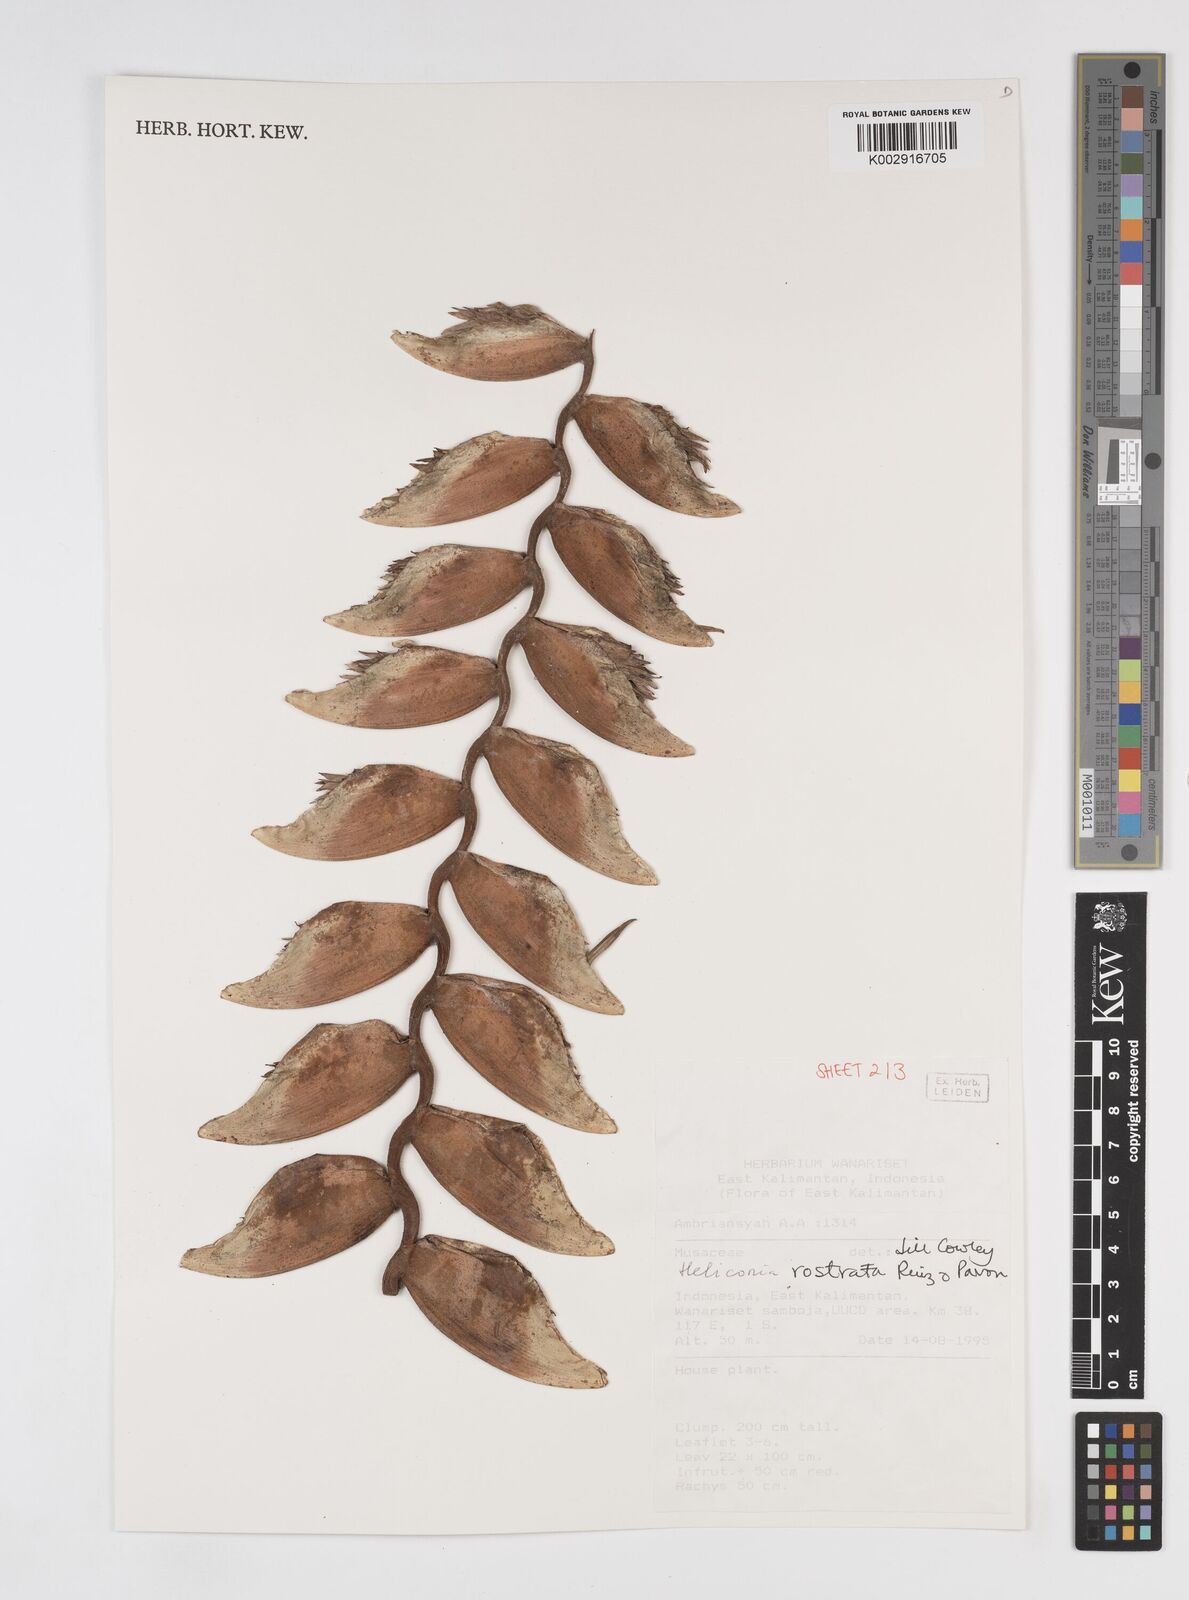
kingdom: Plantae
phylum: Tracheophyta
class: Liliopsida
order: Zingiberales
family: Heliconiaceae
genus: Heliconia
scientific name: Heliconia rostrata
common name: False bird of paradise
